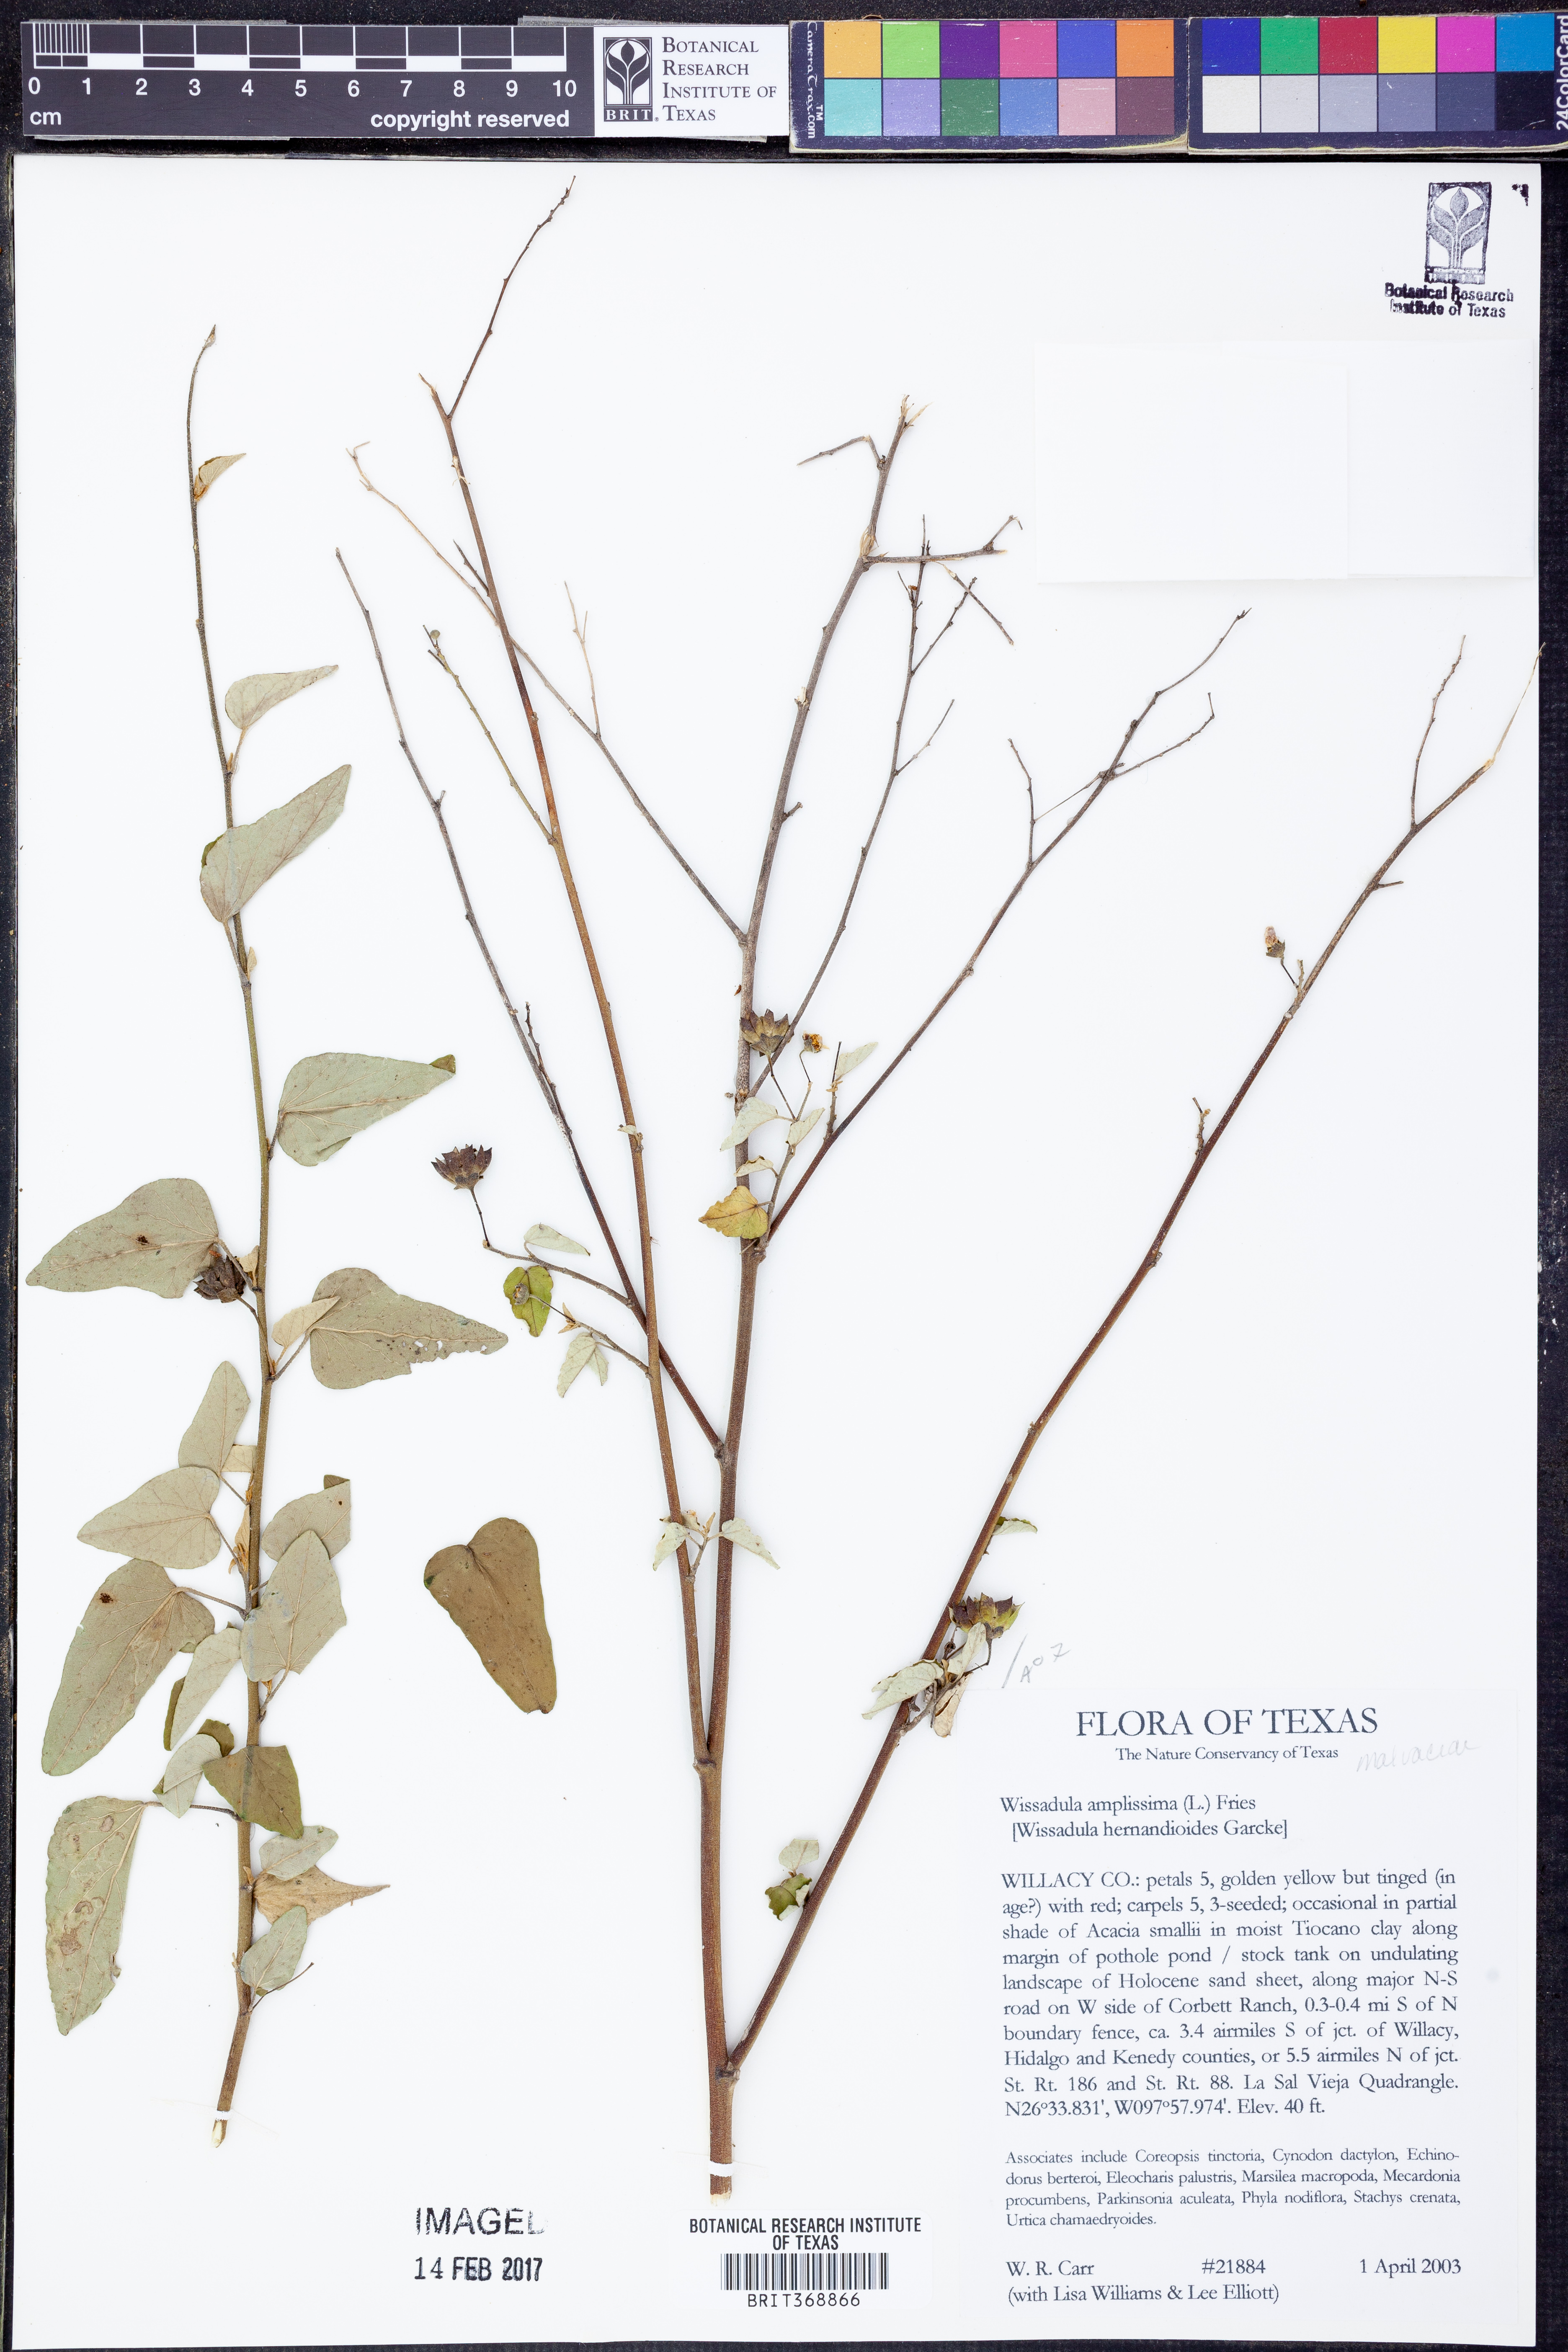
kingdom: Plantae
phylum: Tracheophyta
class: Magnoliopsida
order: Malvales
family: Malvaceae
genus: Wissadula
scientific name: Wissadula amplissima
